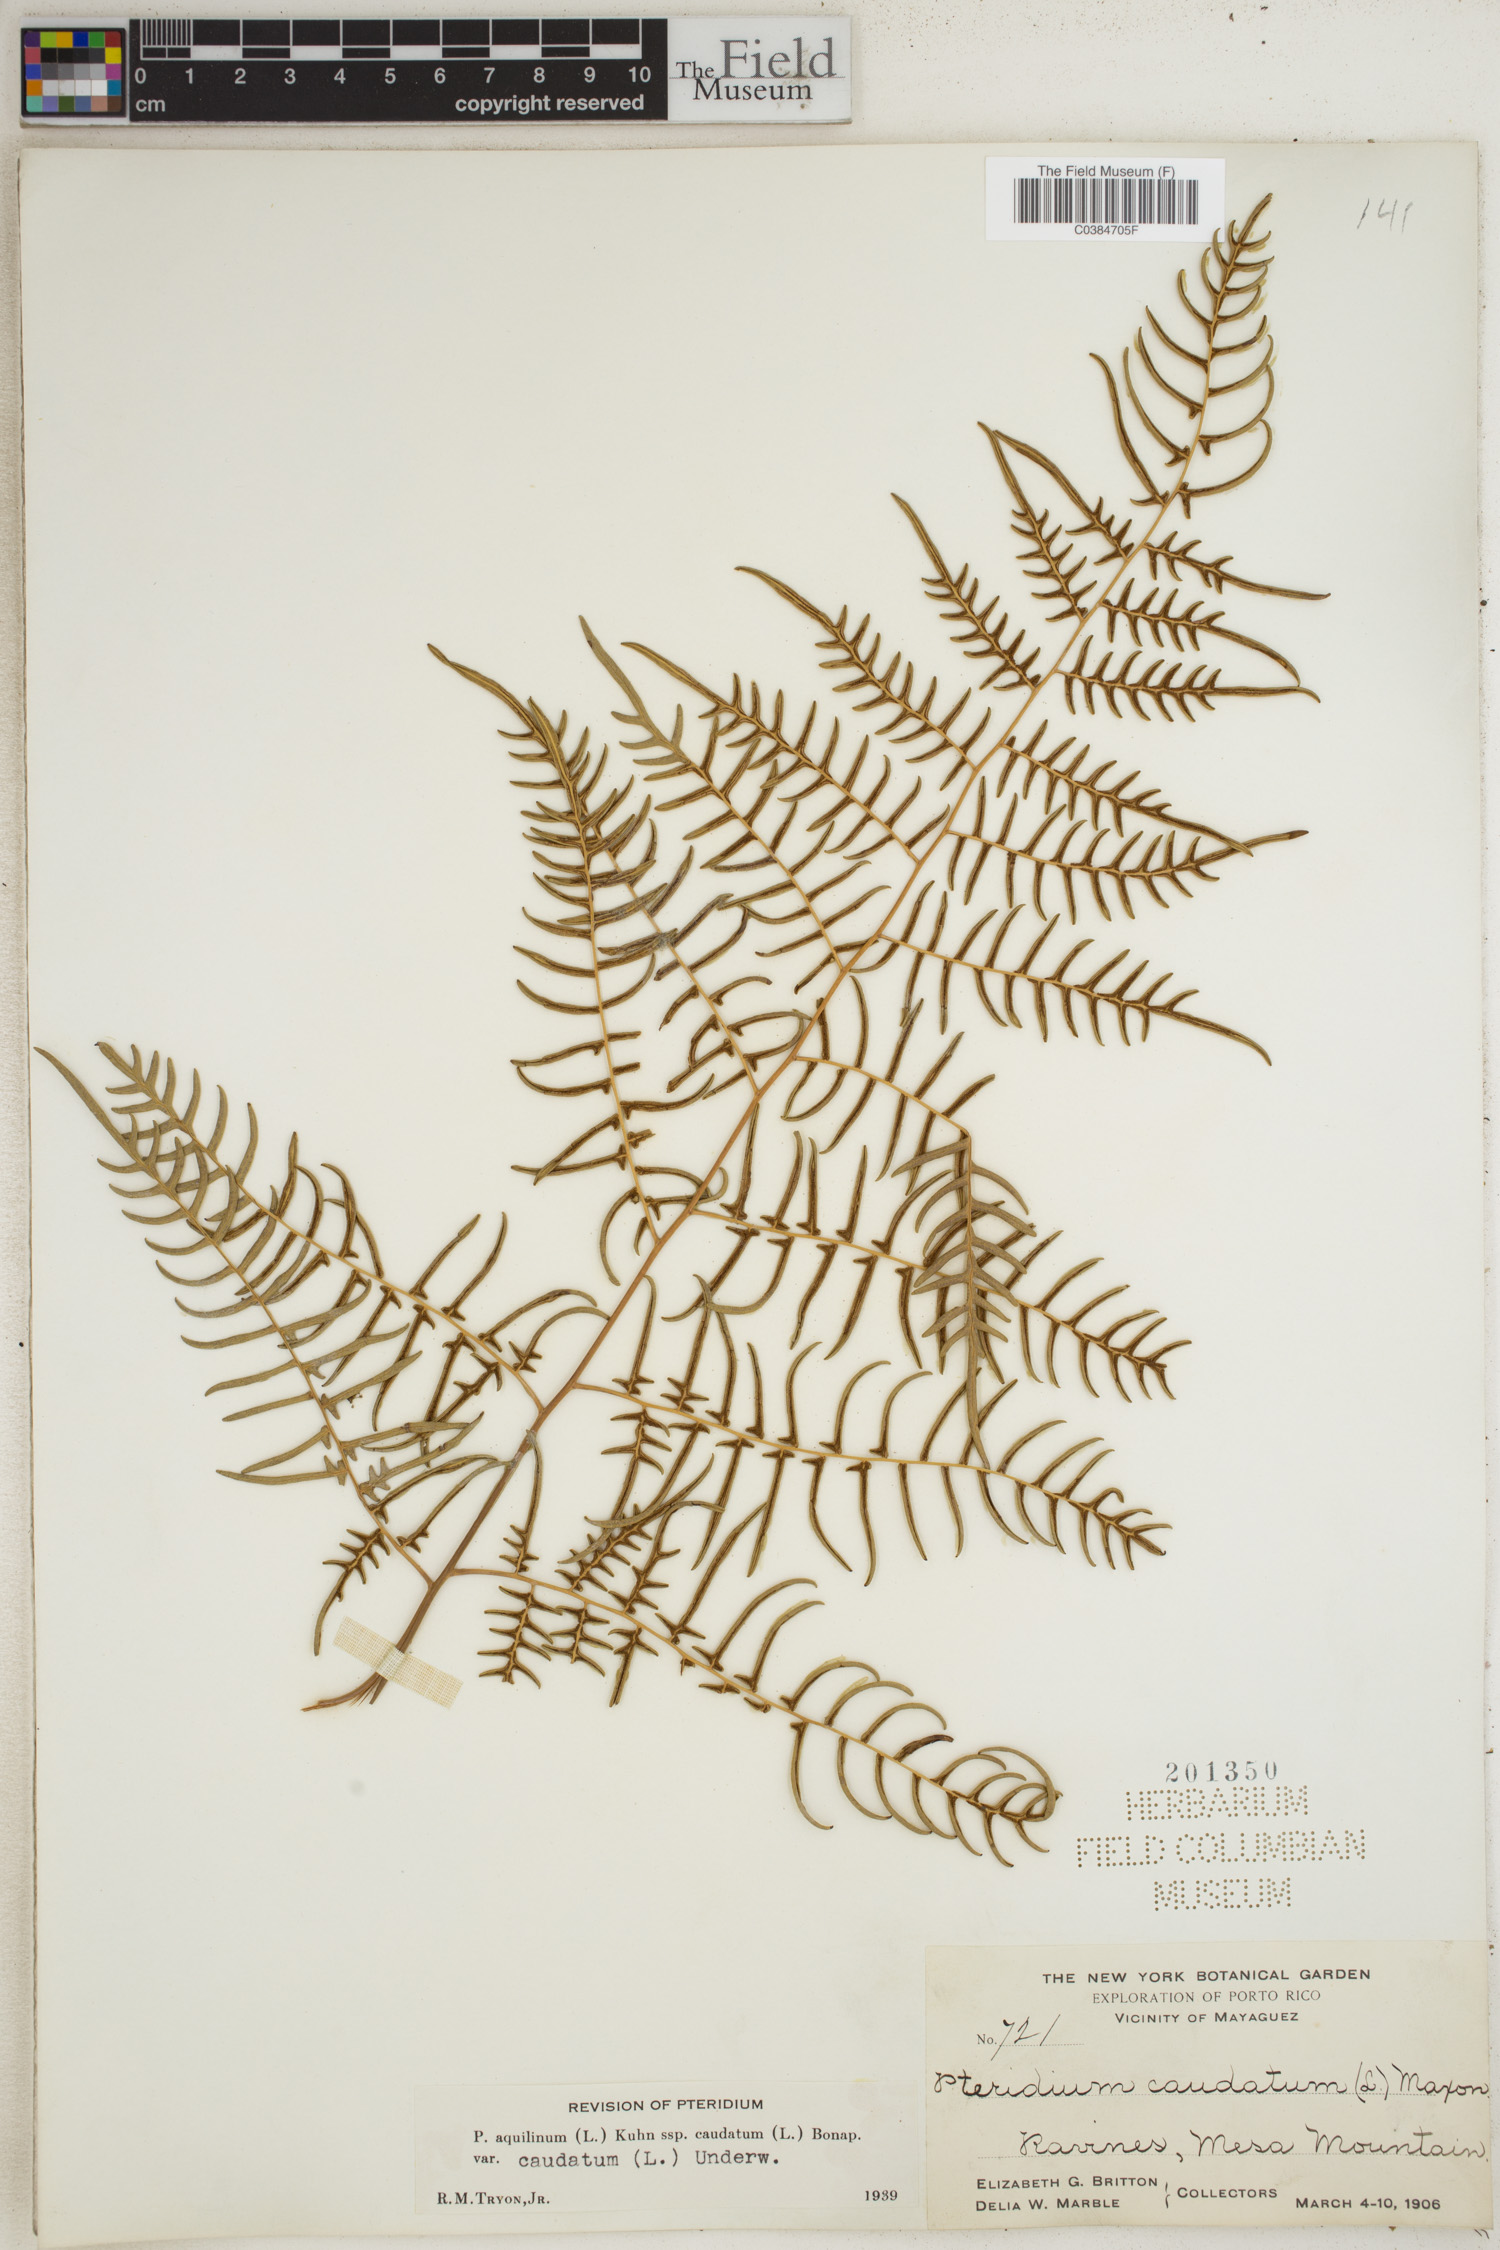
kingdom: Plantae
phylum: Tracheophyta
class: Polypodiopsida
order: Polypodiales
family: Dennstaedtiaceae
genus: Pteridium
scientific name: Pteridium caudatum
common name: Southern bracken fern
